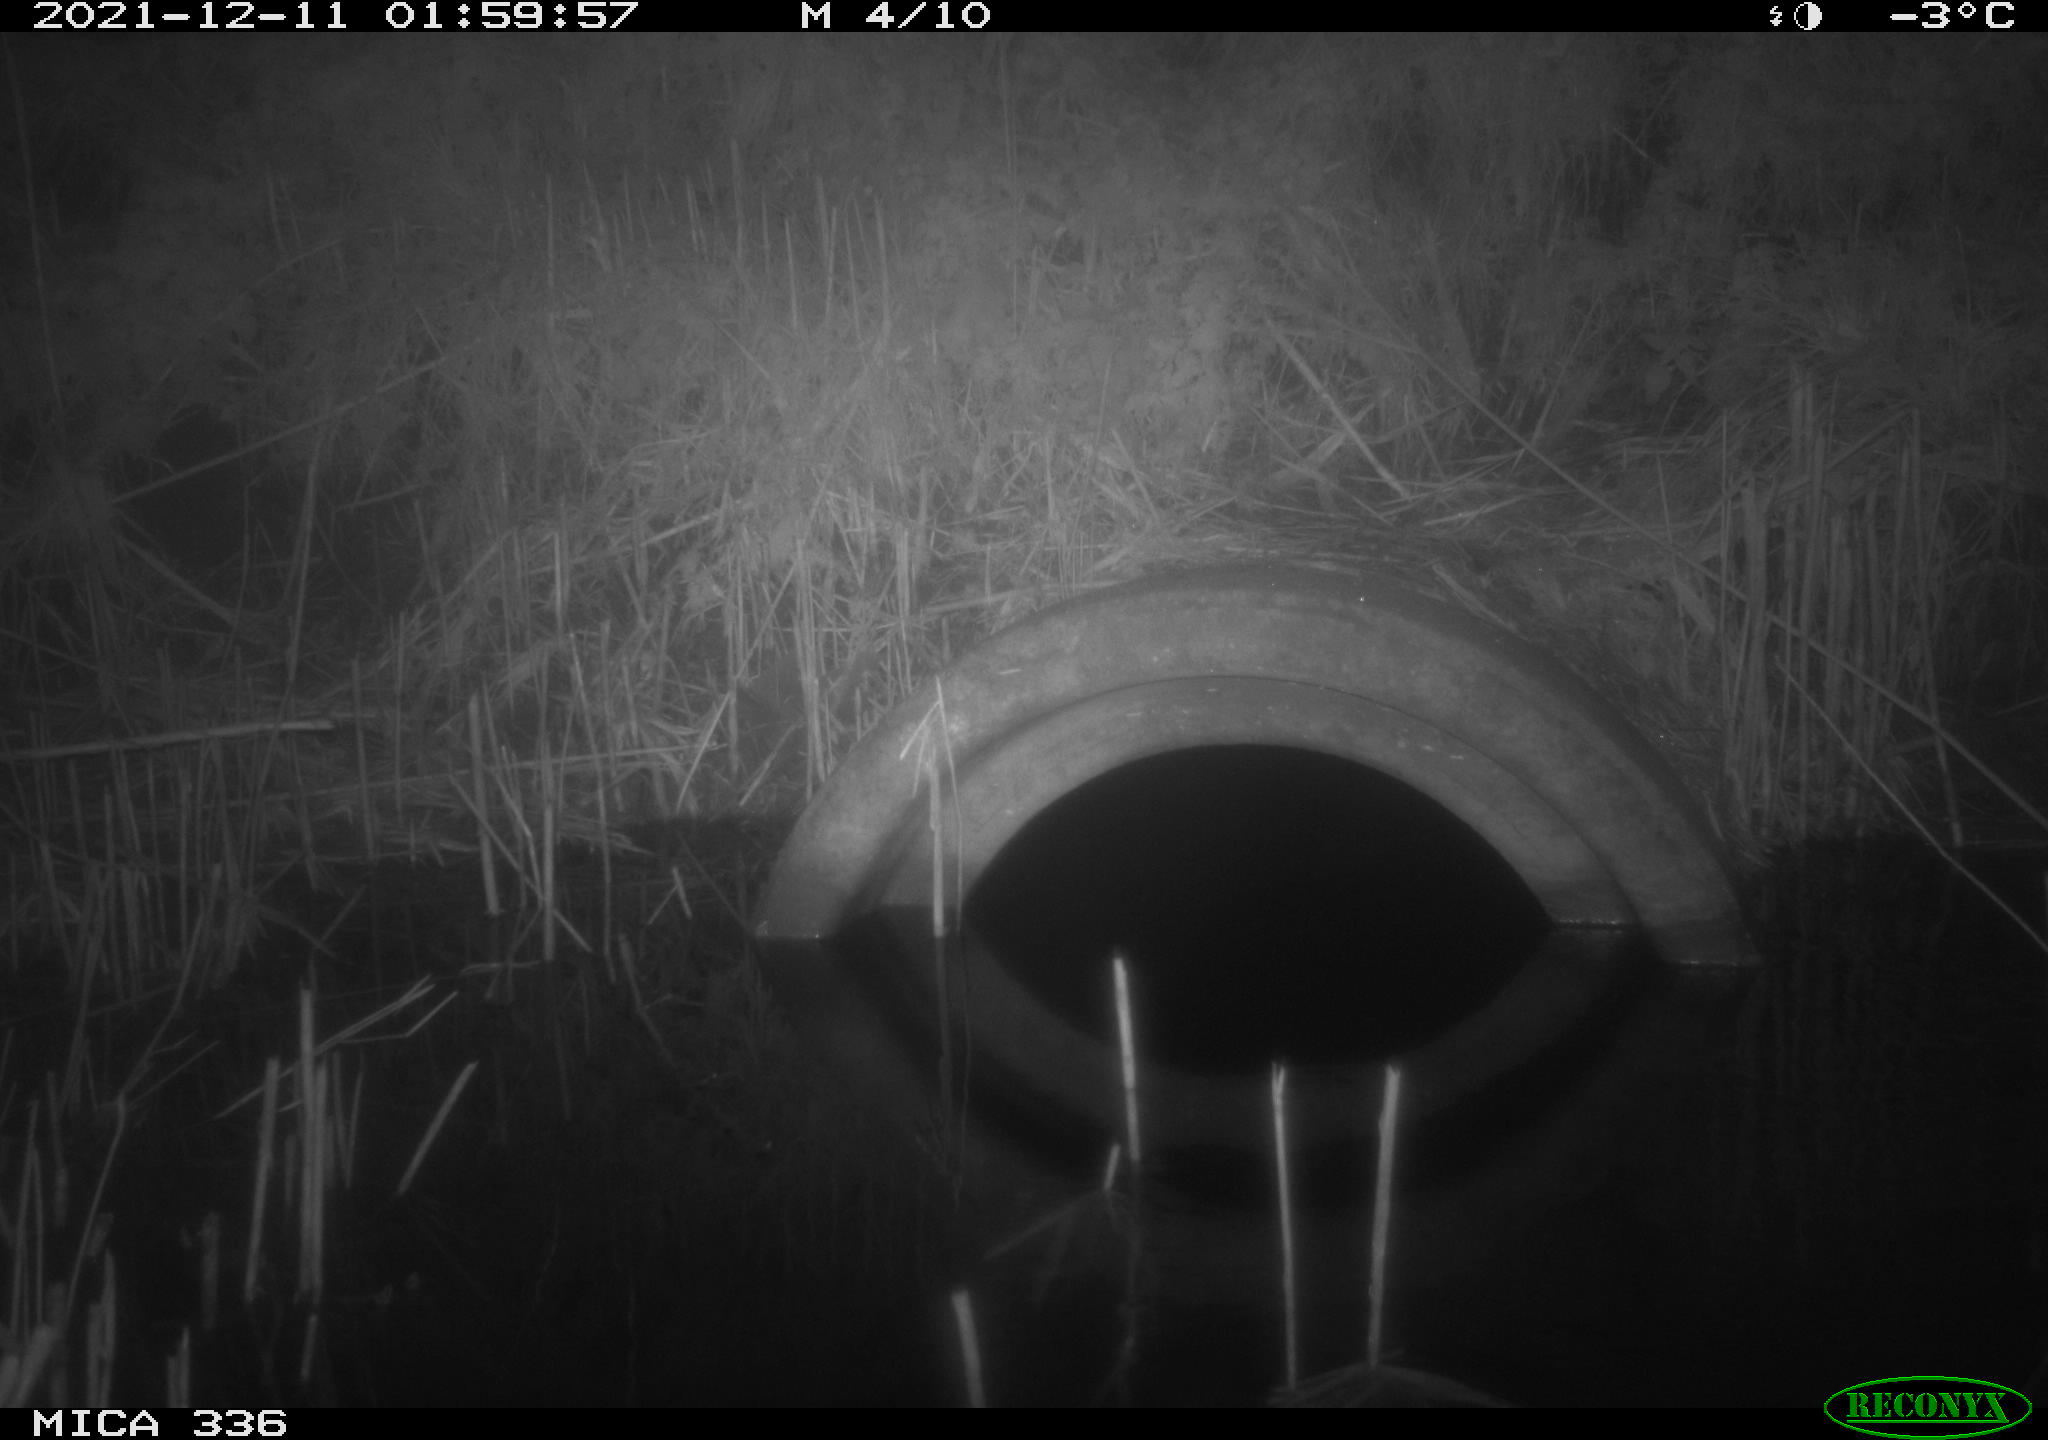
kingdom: Animalia
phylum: Chordata
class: Mammalia
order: Rodentia
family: Muridae
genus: Rattus
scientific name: Rattus norvegicus
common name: Brown rat
